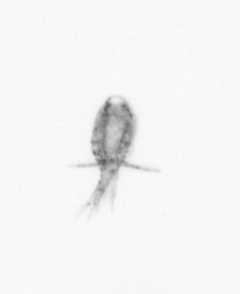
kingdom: Animalia
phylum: Arthropoda
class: Copepoda
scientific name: Copepoda
